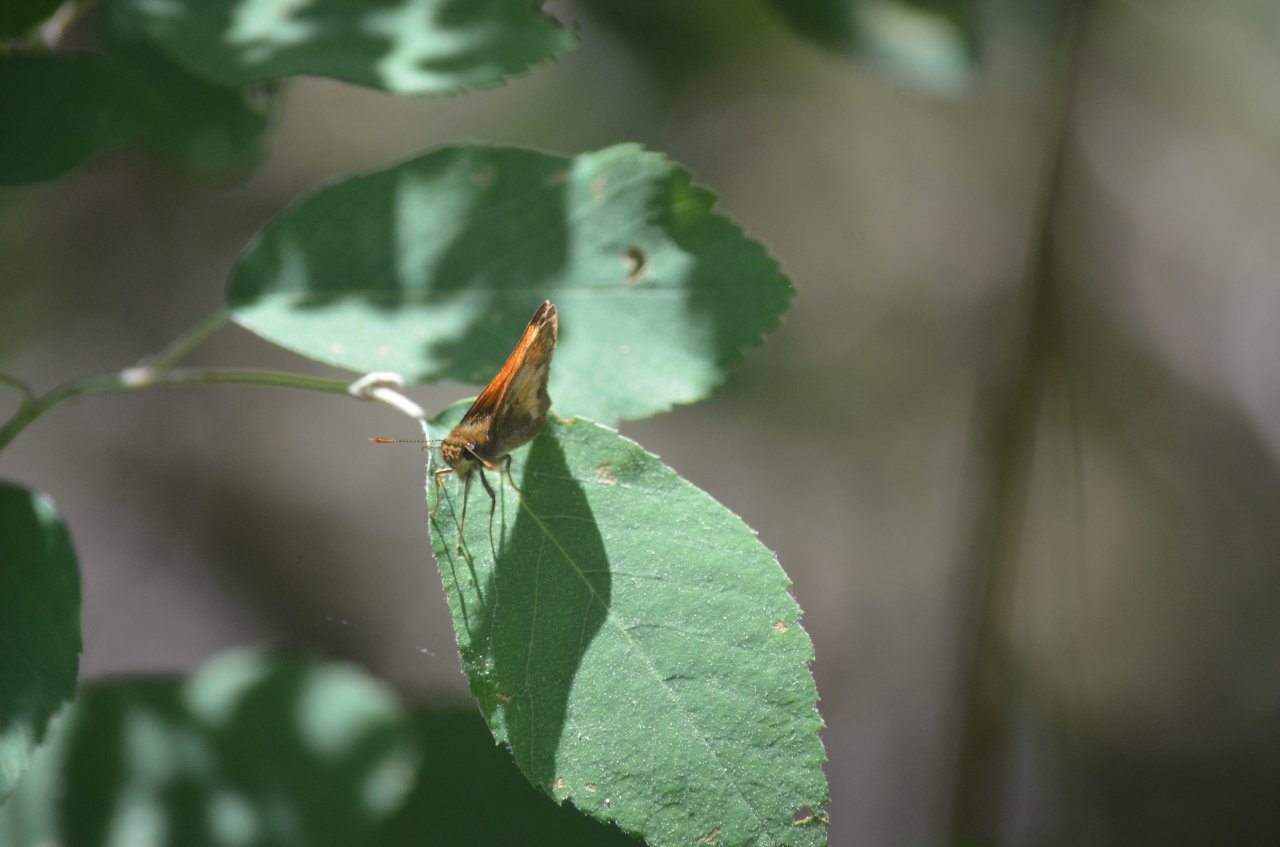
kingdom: Animalia
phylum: Arthropoda
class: Insecta
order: Lepidoptera
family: Hesperiidae
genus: Lon
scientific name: Lon hobomok
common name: Hobomok Skipper
